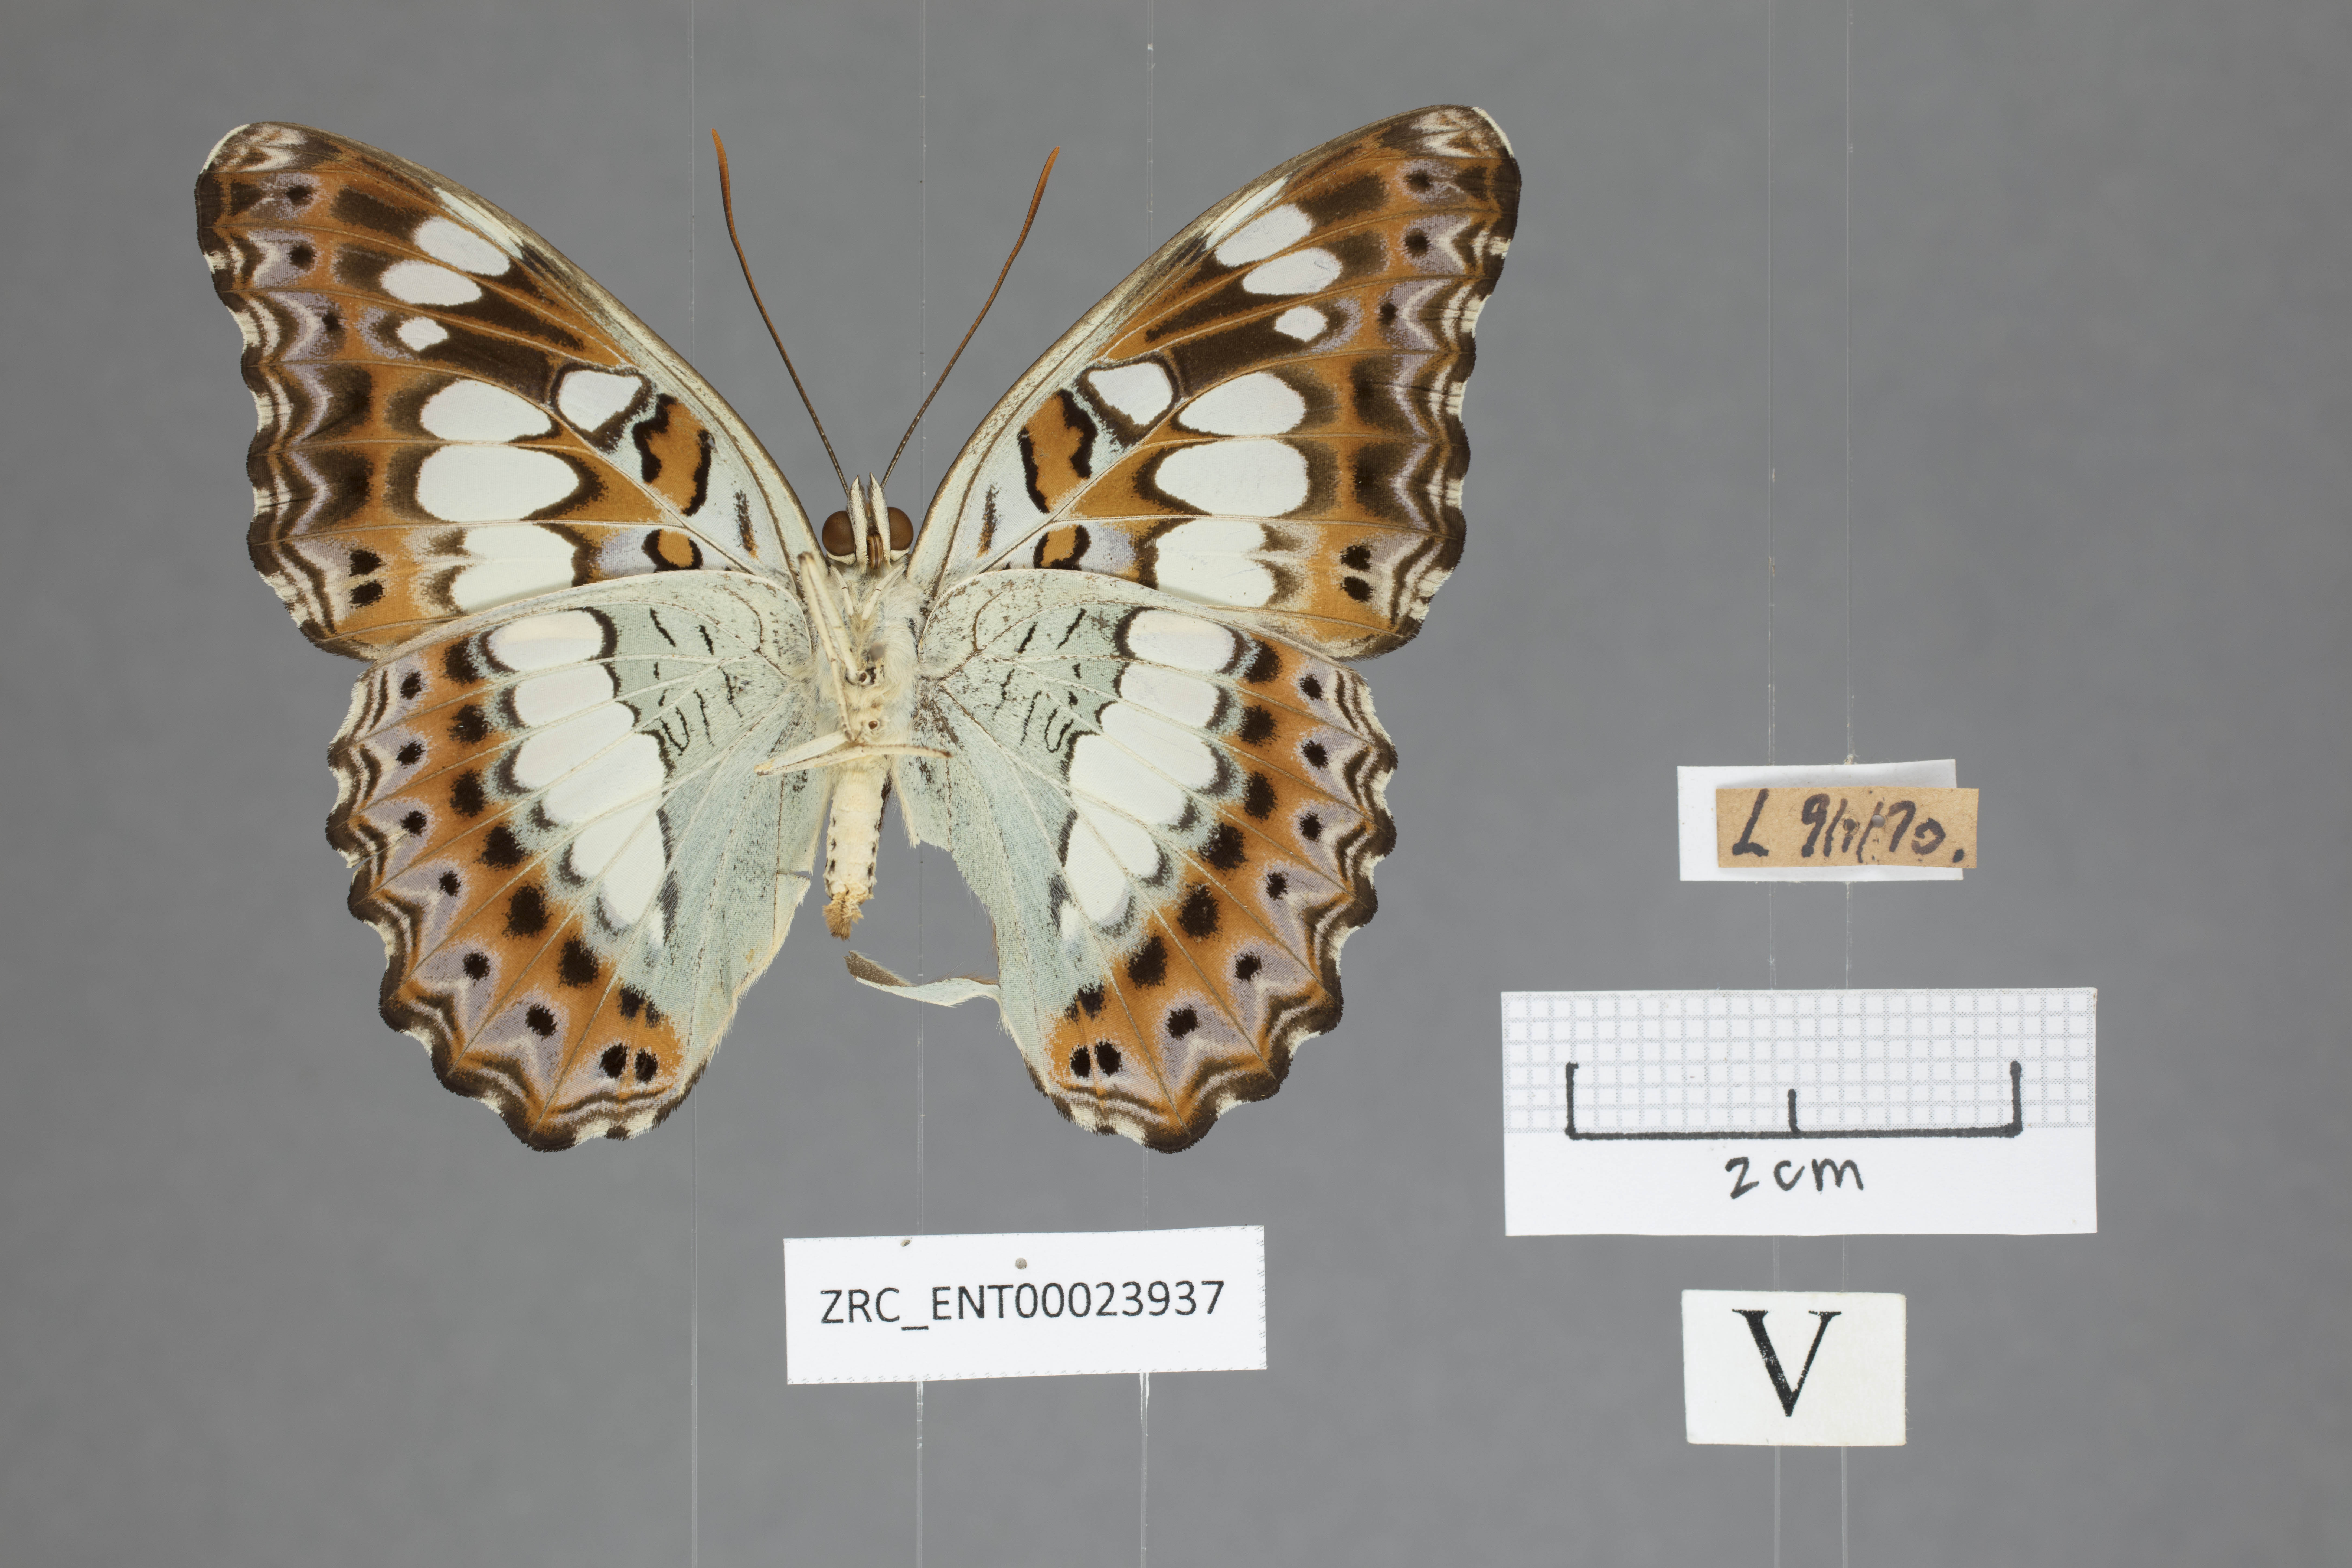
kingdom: Animalia
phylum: Arthropoda
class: Insecta
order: Lepidoptera
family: Nymphalidae
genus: Limenitis
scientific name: Limenitis Moduza procris
